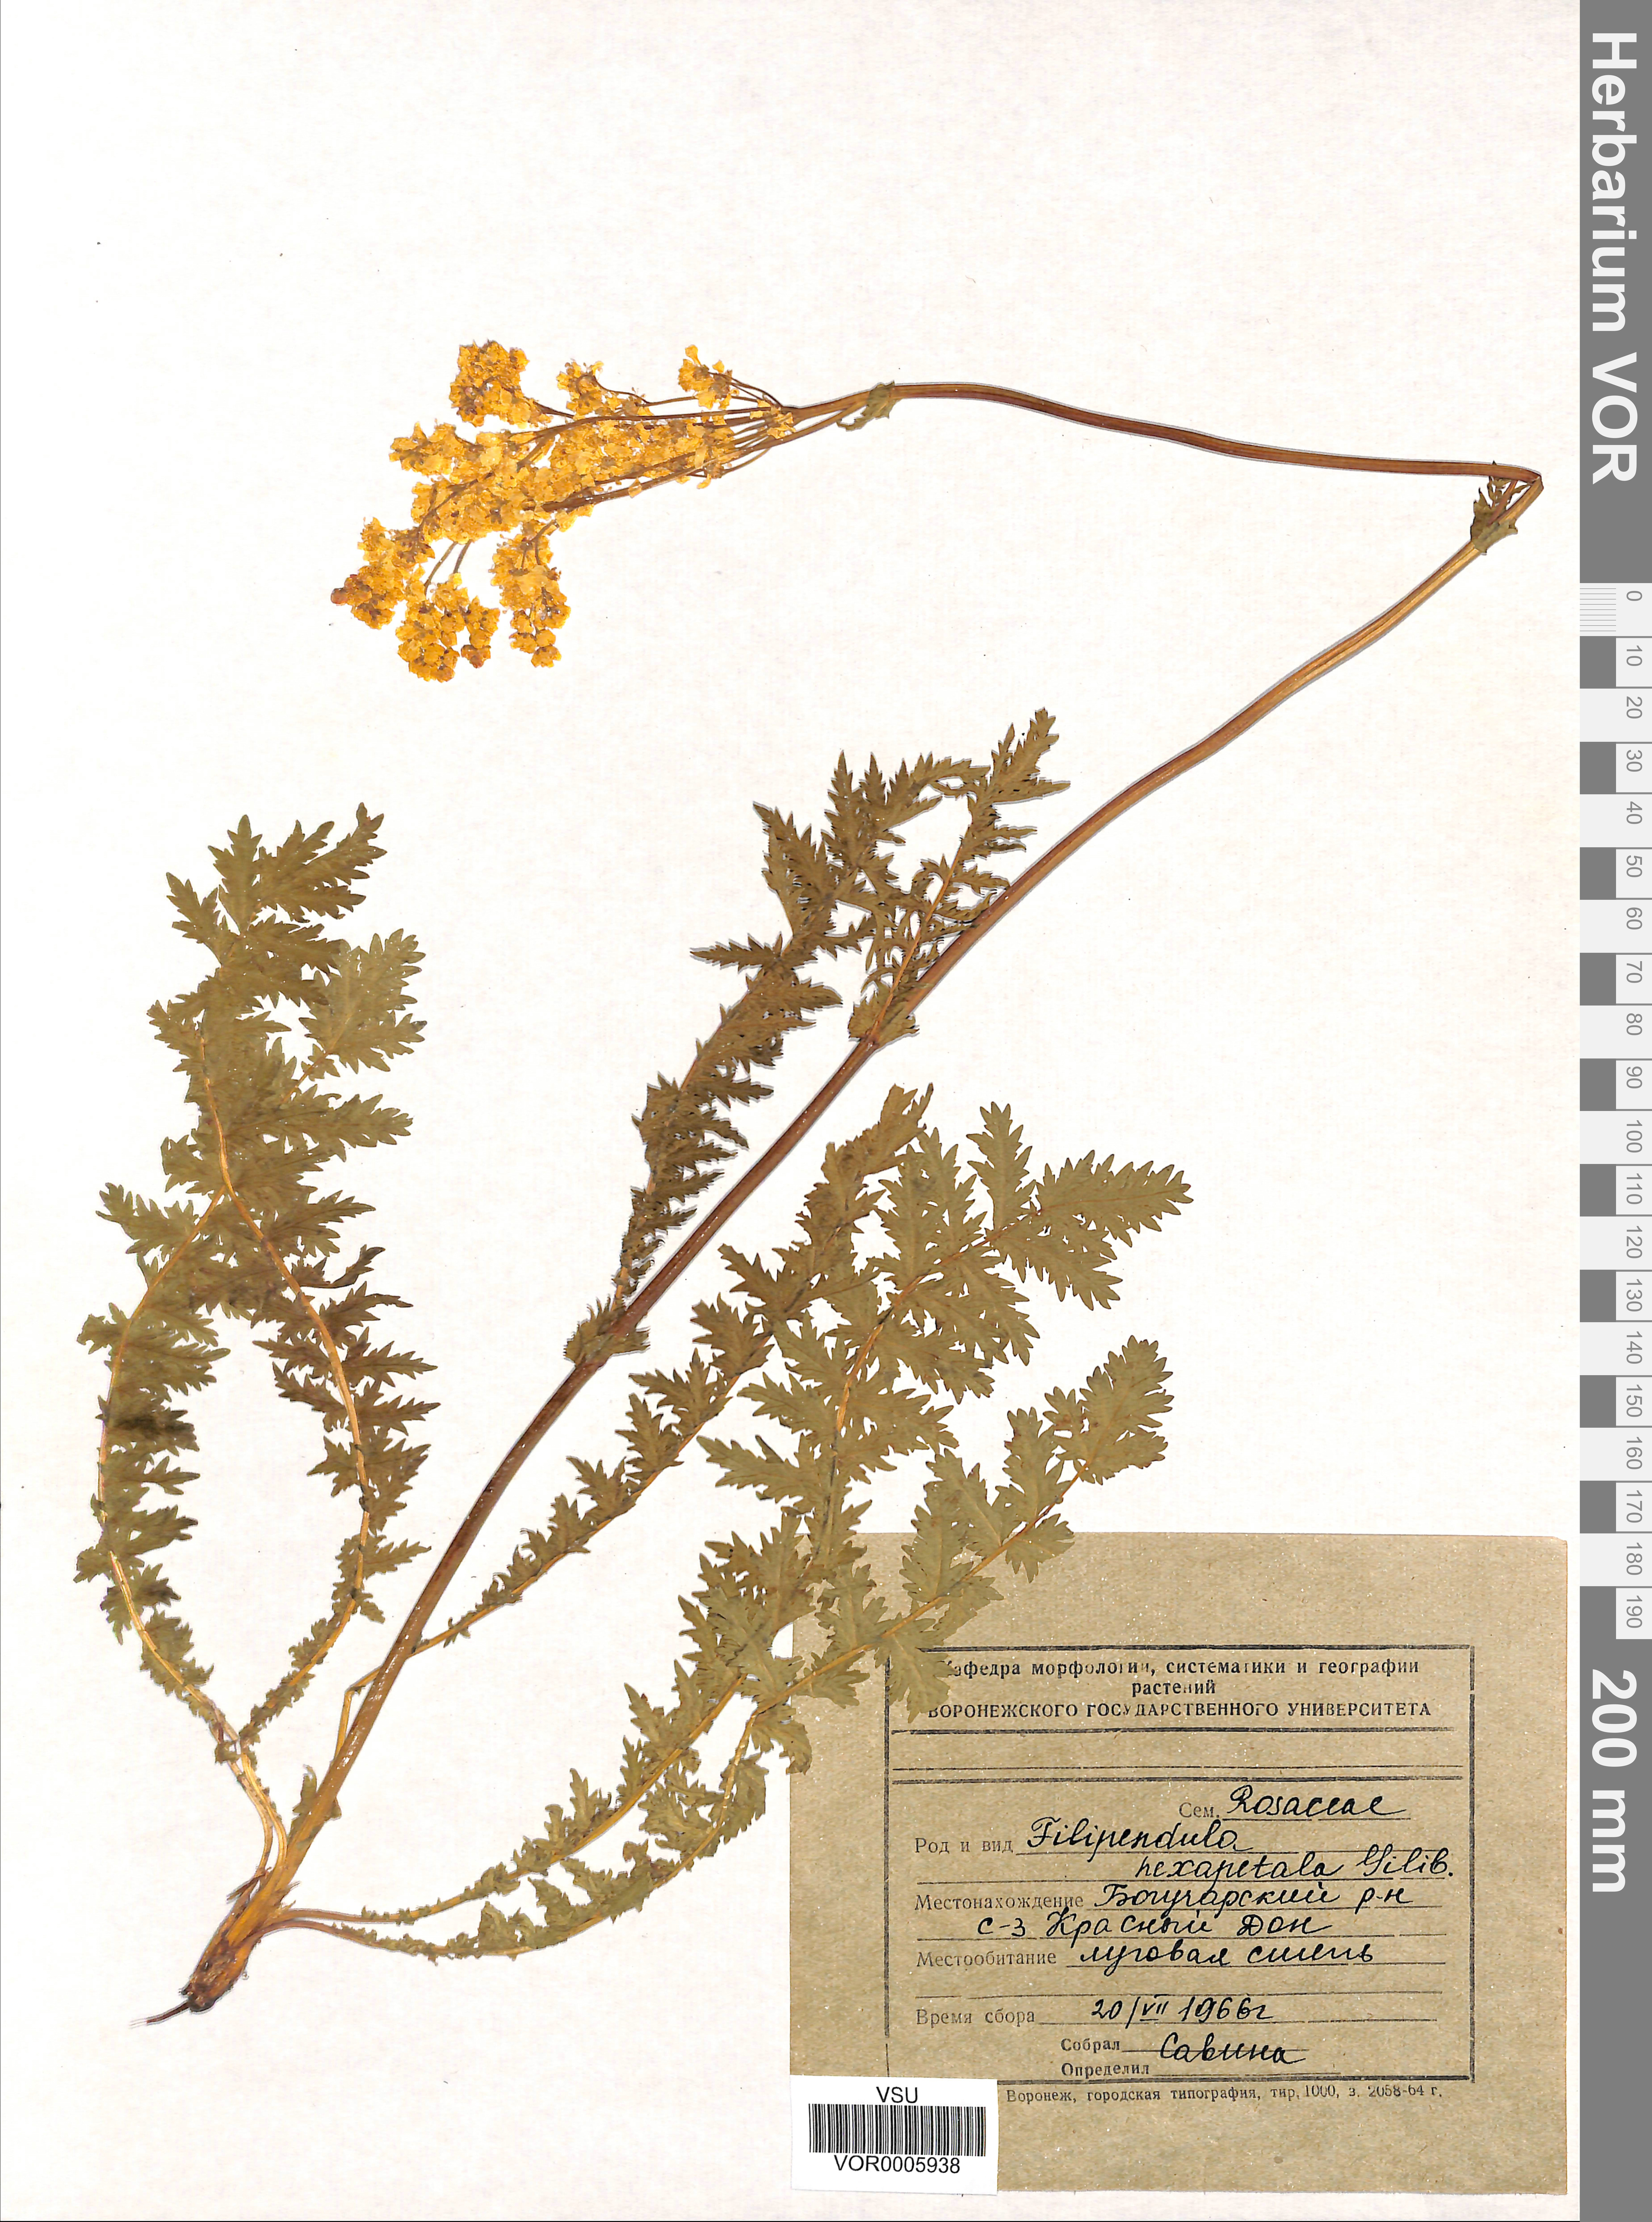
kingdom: Plantae
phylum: Tracheophyta
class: Magnoliopsida
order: Rosales
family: Rosaceae
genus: Filipendula
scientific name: Filipendula vulgaris
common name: Dropwort
